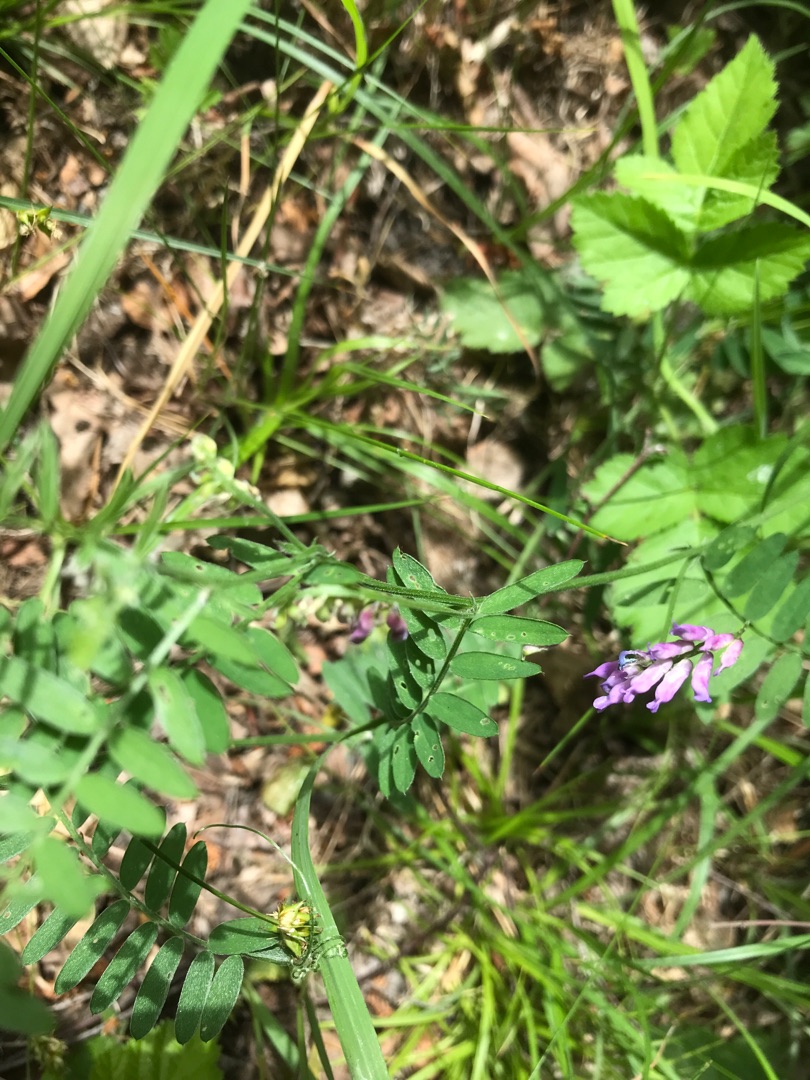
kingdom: Plantae
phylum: Tracheophyta
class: Magnoliopsida
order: Fabales
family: Fabaceae
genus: Vicia
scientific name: Vicia cracca
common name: Muse-vikke
